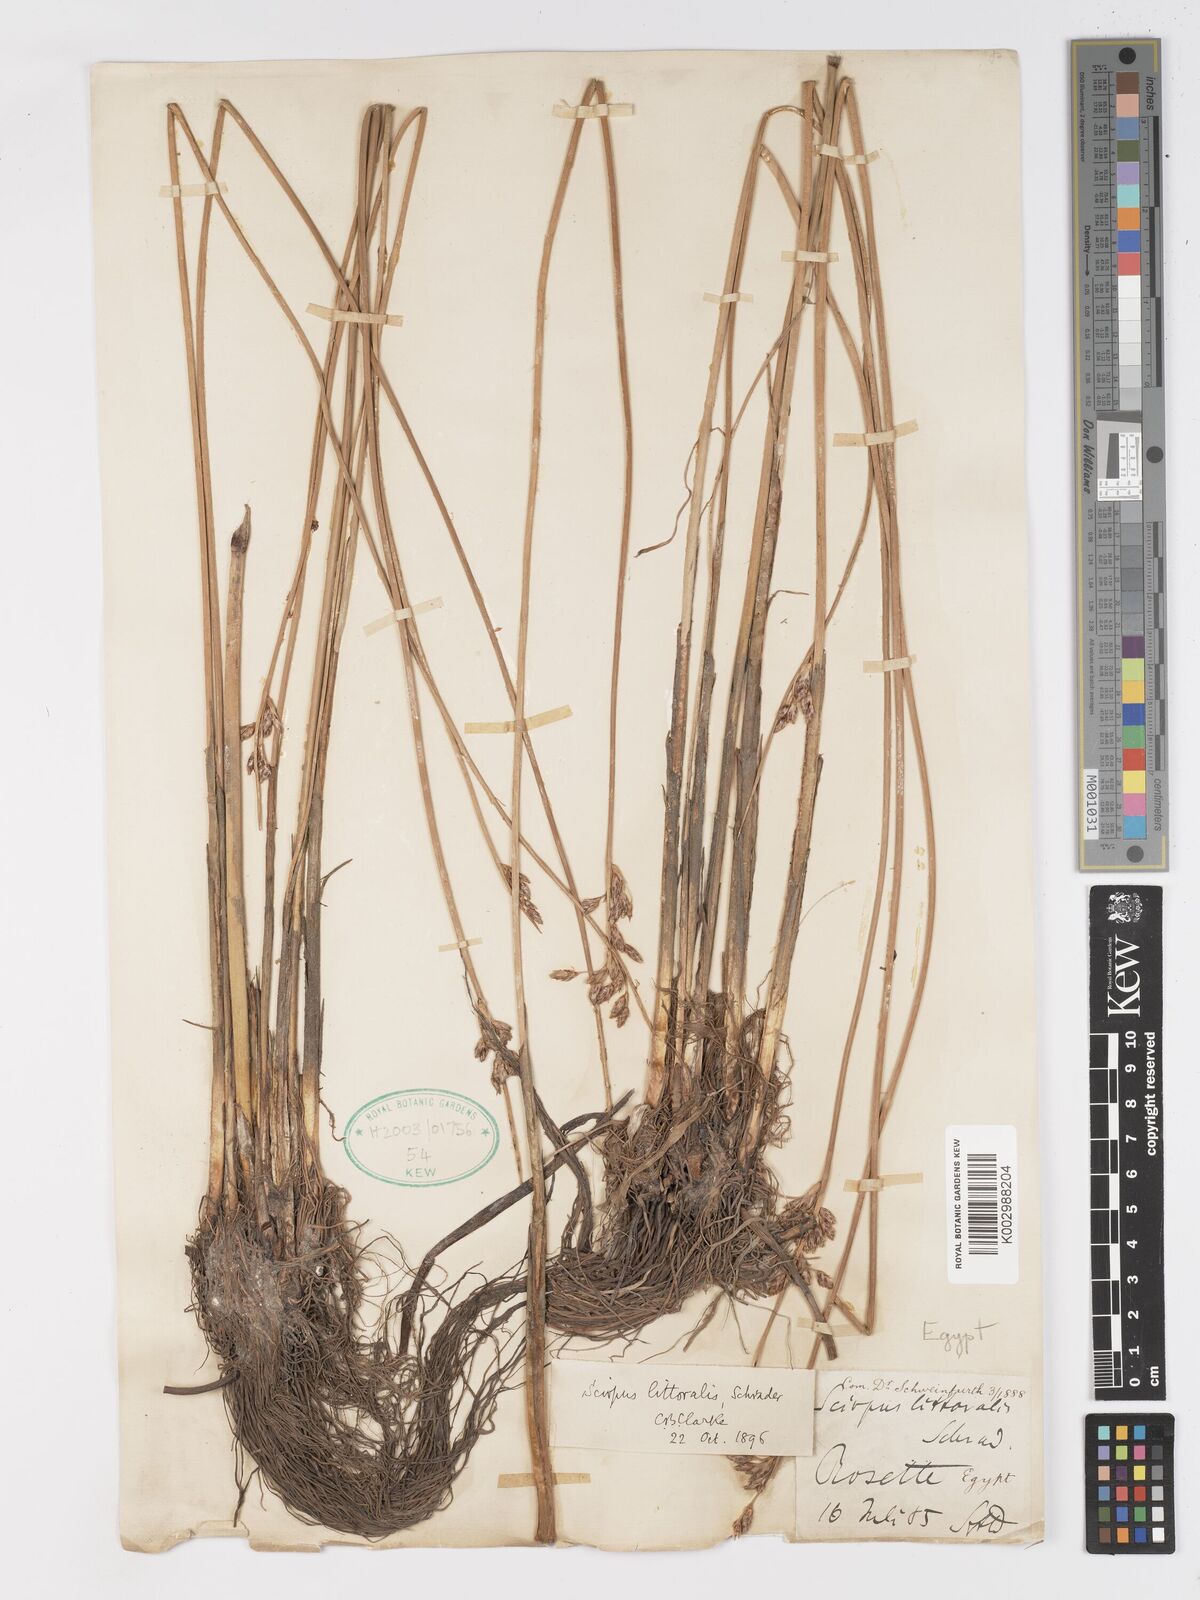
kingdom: Plantae
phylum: Tracheophyta
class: Liliopsida
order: Poales
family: Cyperaceae
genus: Schoenoplectus
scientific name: Schoenoplectus litoralis
